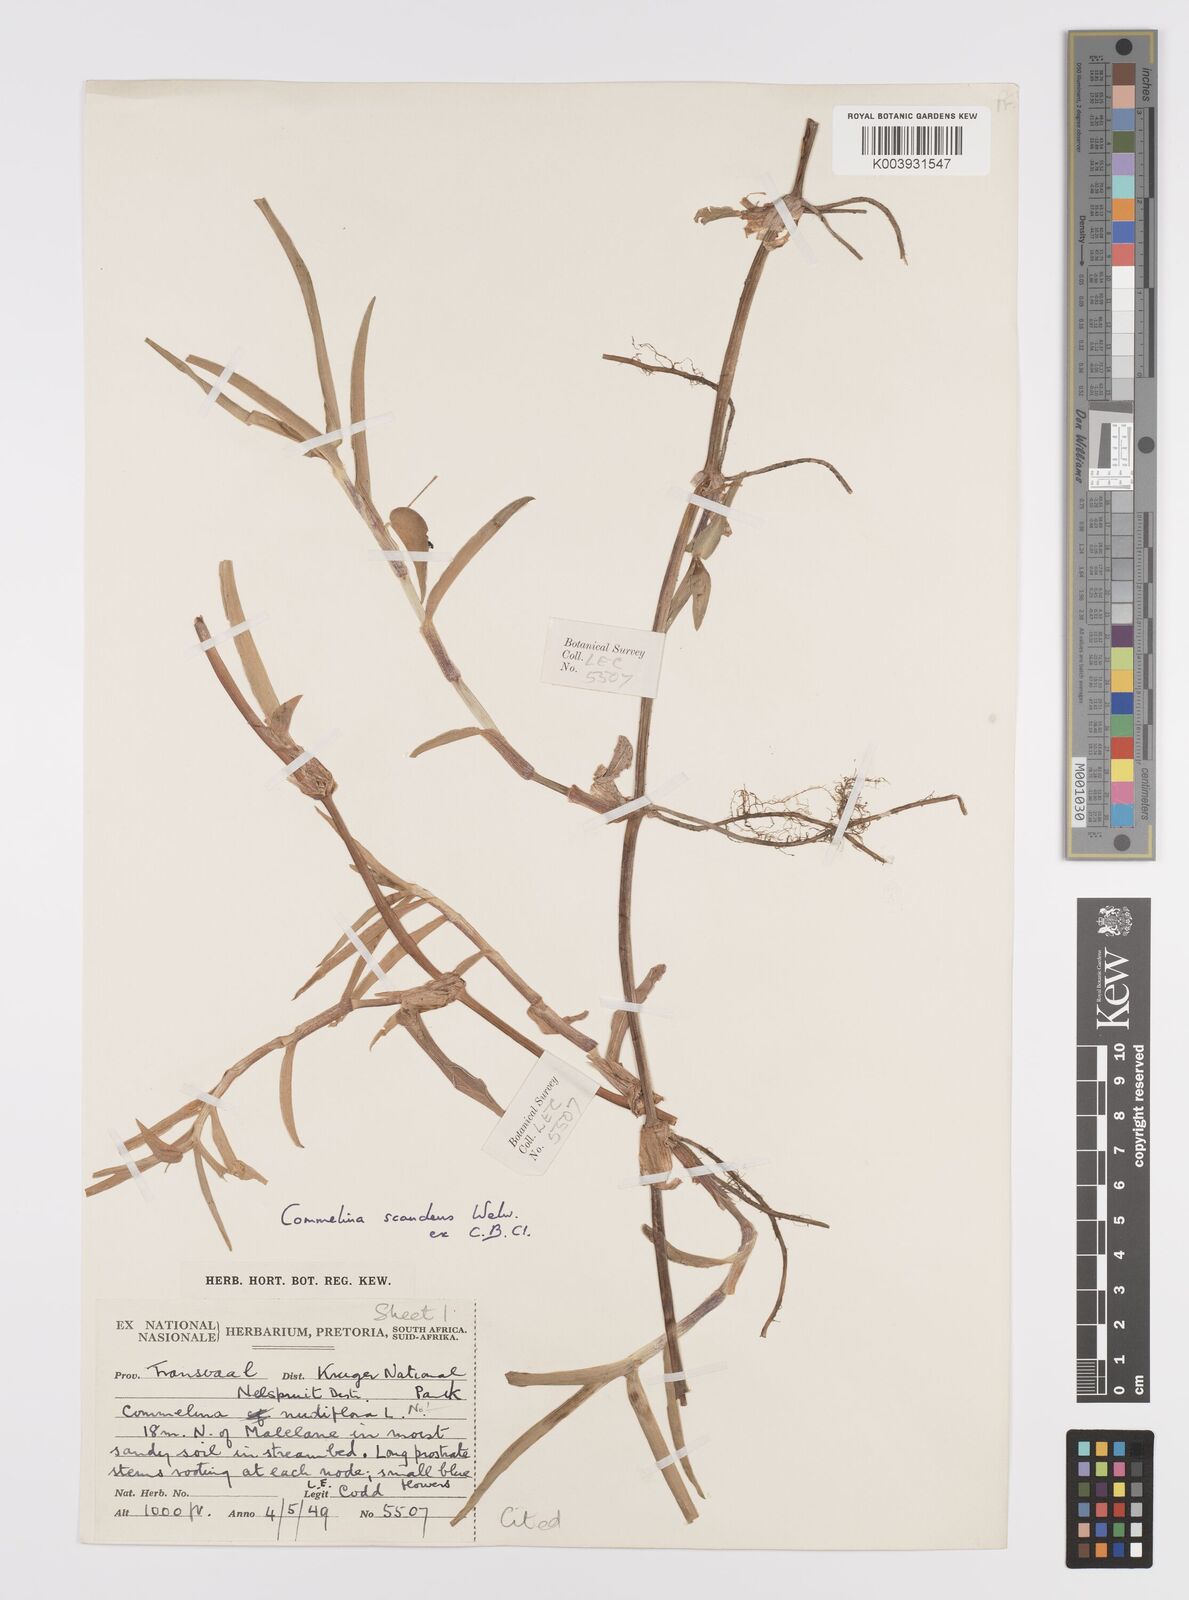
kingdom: Plantae
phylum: Tracheophyta
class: Liliopsida
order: Commelinales
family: Commelinaceae
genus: Commelina
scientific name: Commelina scandens
